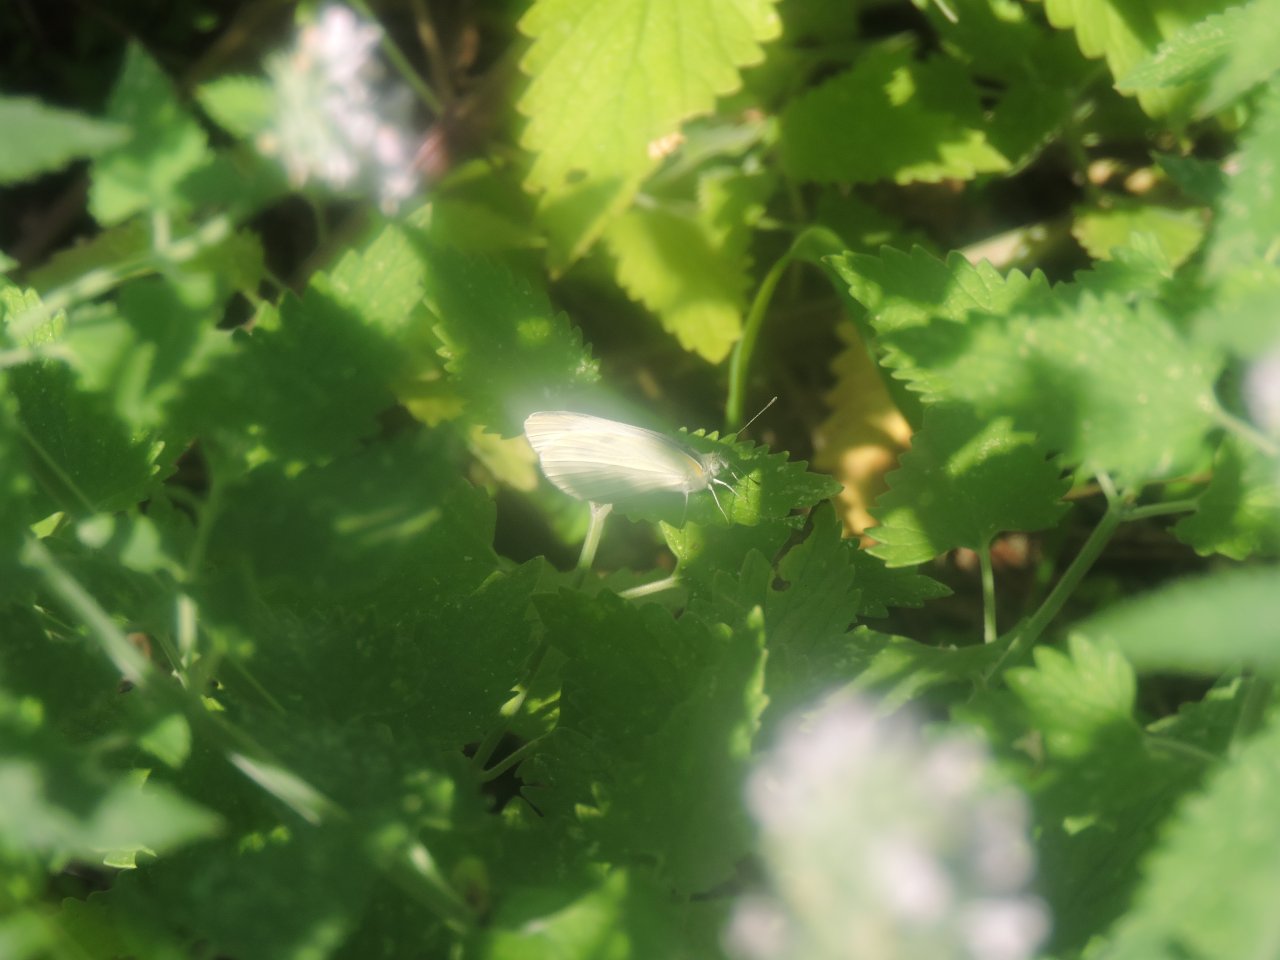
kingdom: Animalia
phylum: Arthropoda
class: Insecta
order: Lepidoptera
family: Pieridae
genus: Pieris
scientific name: Pieris rapae
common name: Cabbage White
